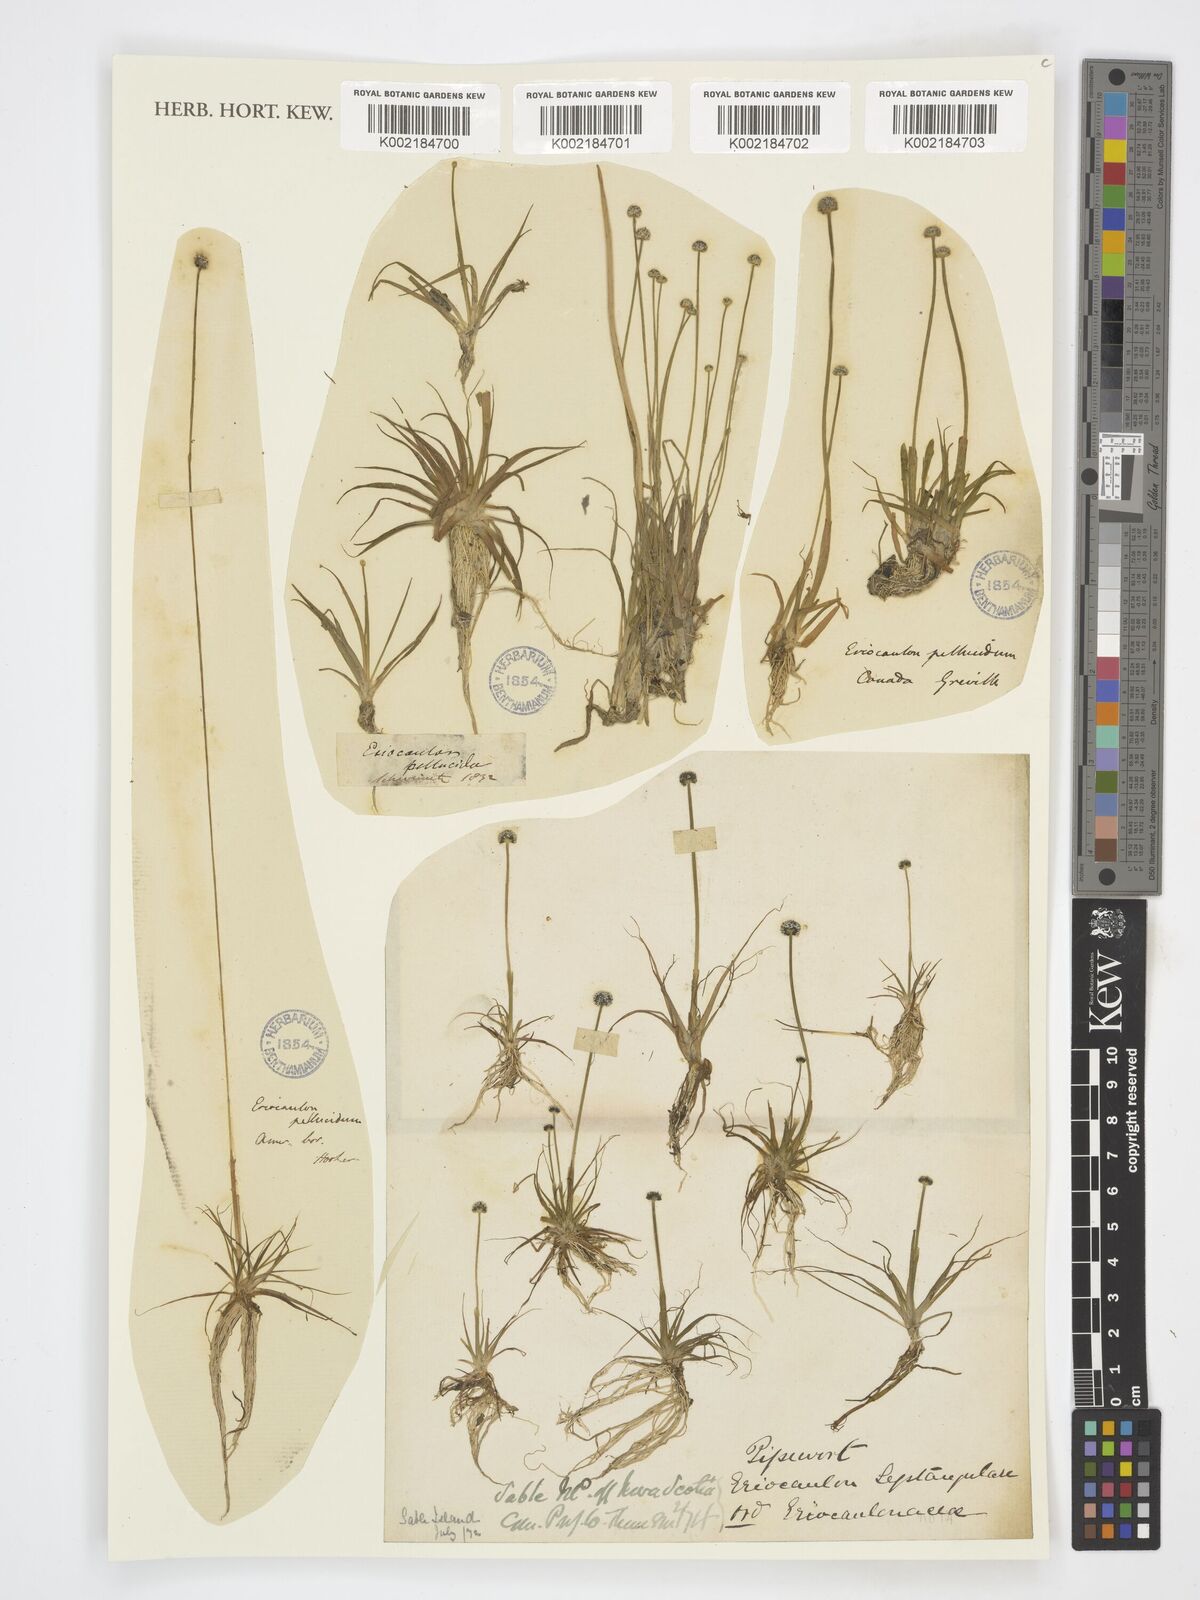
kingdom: Plantae
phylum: Tracheophyta
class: Liliopsida
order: Poales
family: Eriocaulaceae
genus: Eriocaulon
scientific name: Eriocaulon aquaticum
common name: Pipewort
